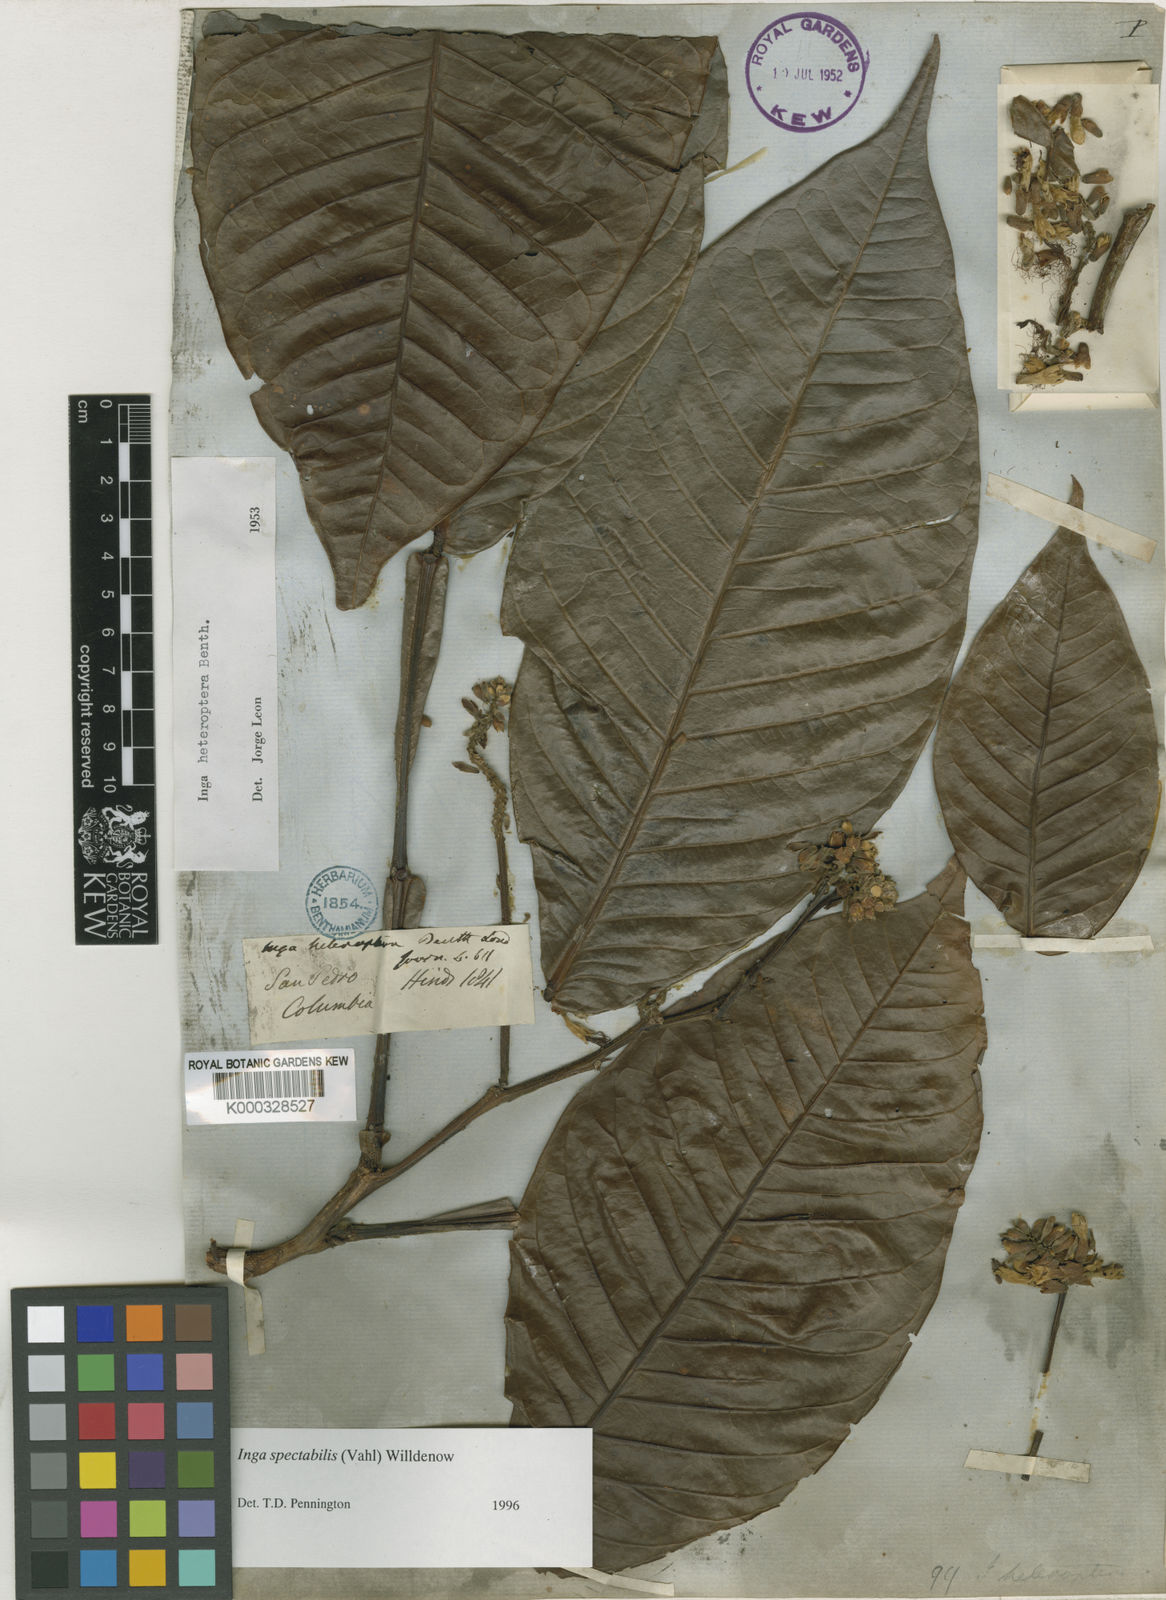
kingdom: Plantae
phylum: Tracheophyta
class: Magnoliopsida
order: Fabales
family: Fabaceae
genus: Inga
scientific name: Inga spectabilis
